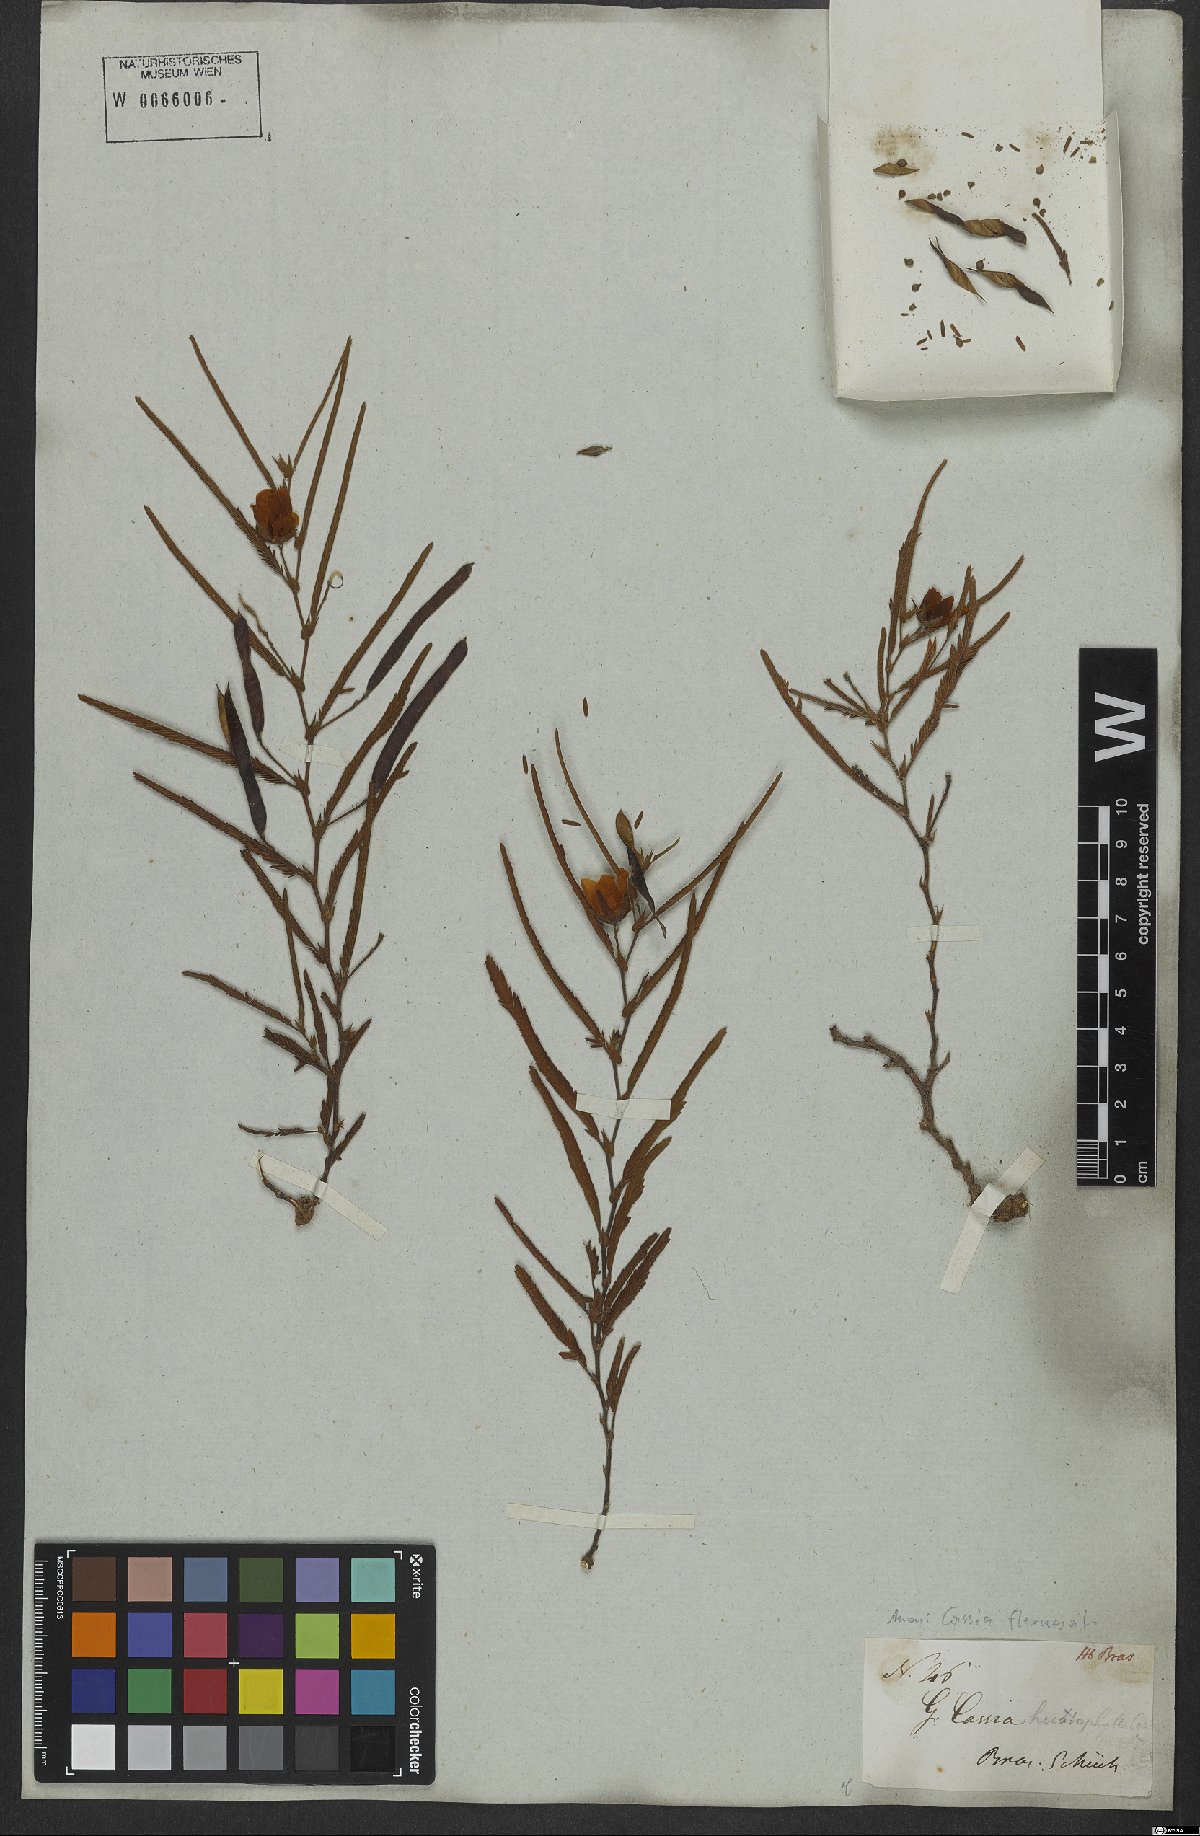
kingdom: Plantae
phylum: Tracheophyta
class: Magnoliopsida
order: Fabales
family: Fabaceae
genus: Chamaecrista
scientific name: Chamaecrista flexuosa
